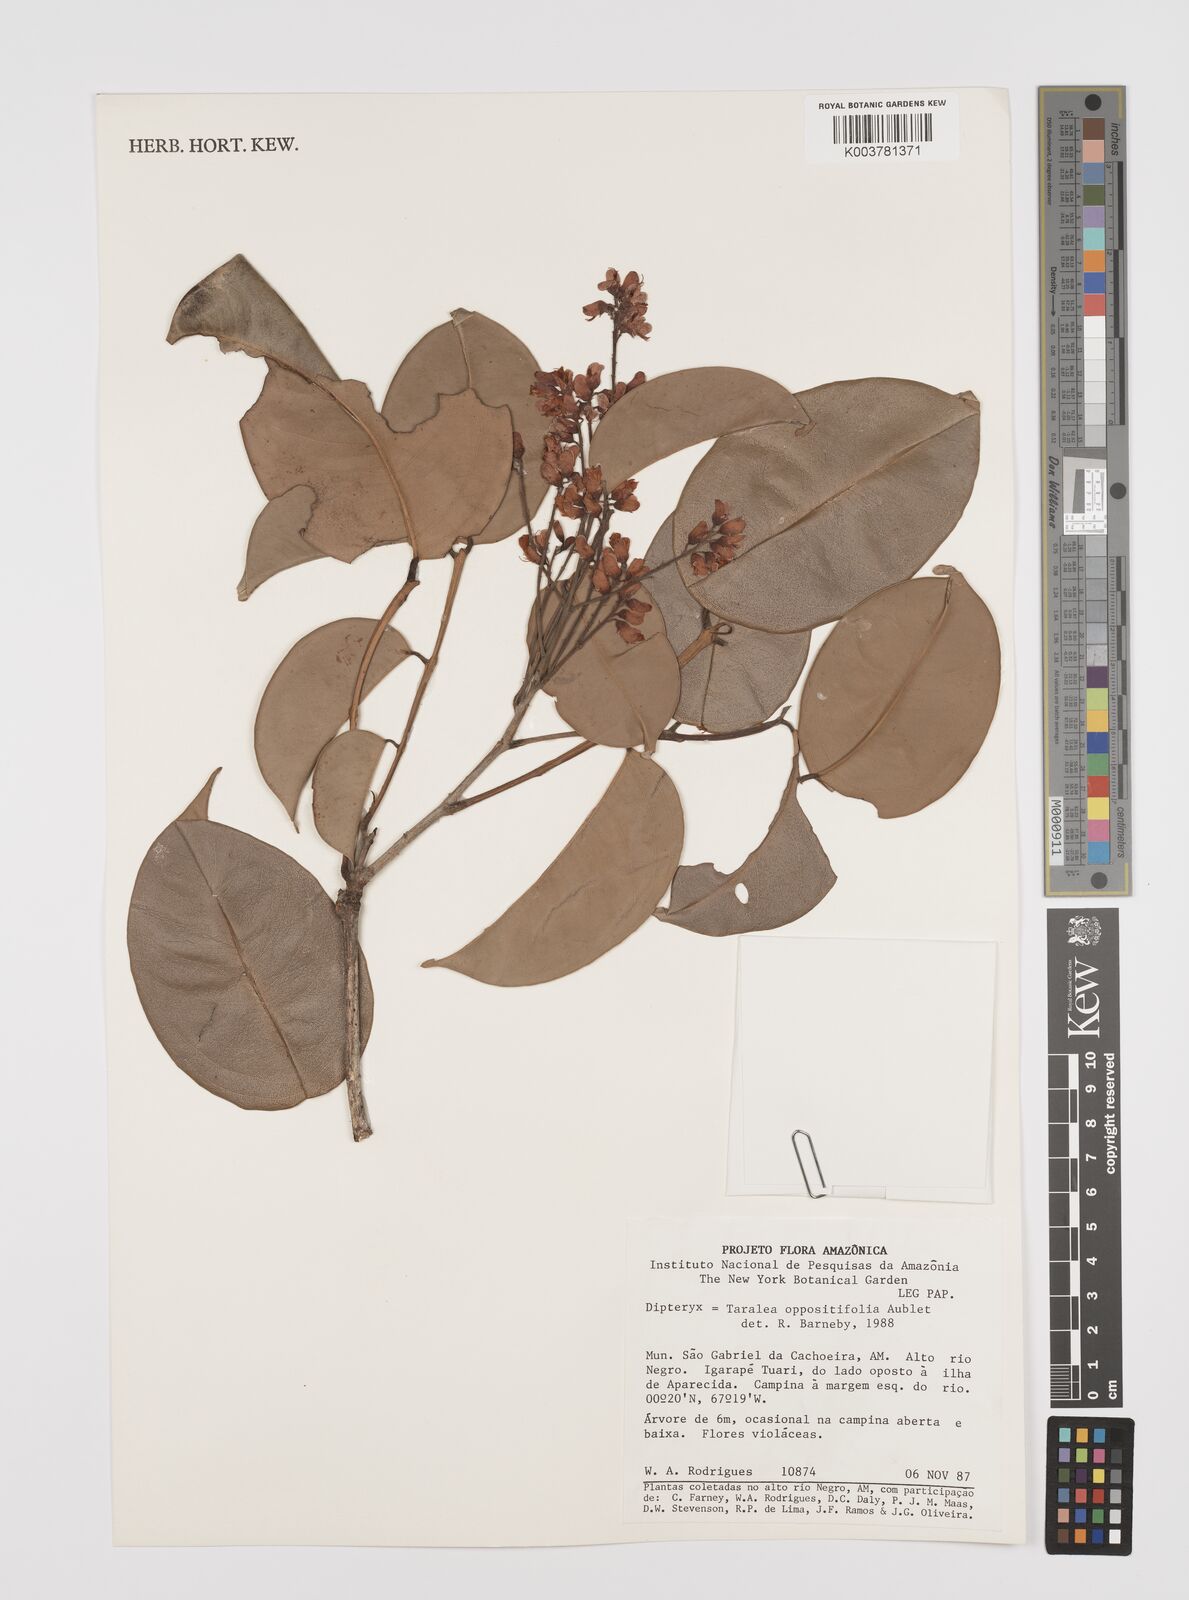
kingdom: Plantae
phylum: Tracheophyta
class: Magnoliopsida
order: Fabales
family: Fabaceae
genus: Taralea
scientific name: Taralea oppositifolia
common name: Tonka
